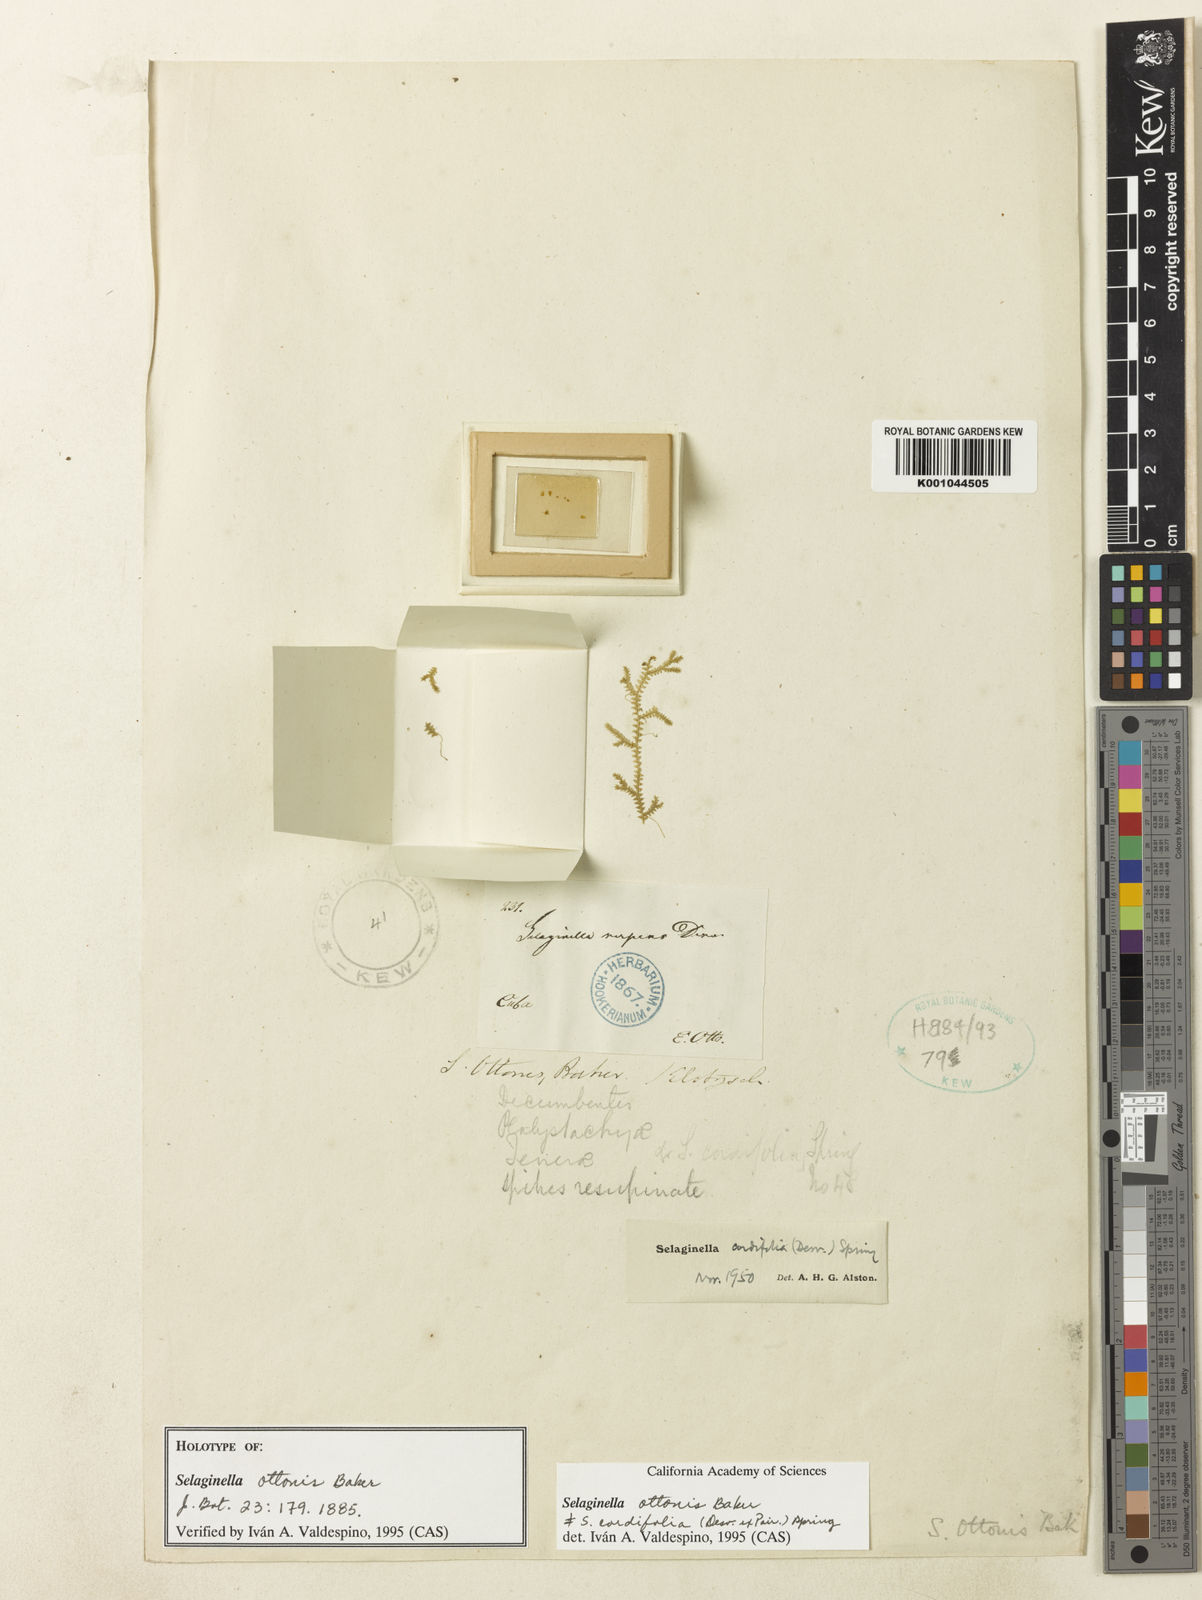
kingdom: Plantae
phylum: Tracheophyta
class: Lycopodiopsida
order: Selaginellales
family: Selaginellaceae
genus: Selaginella
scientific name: Selaginella cordifolia
